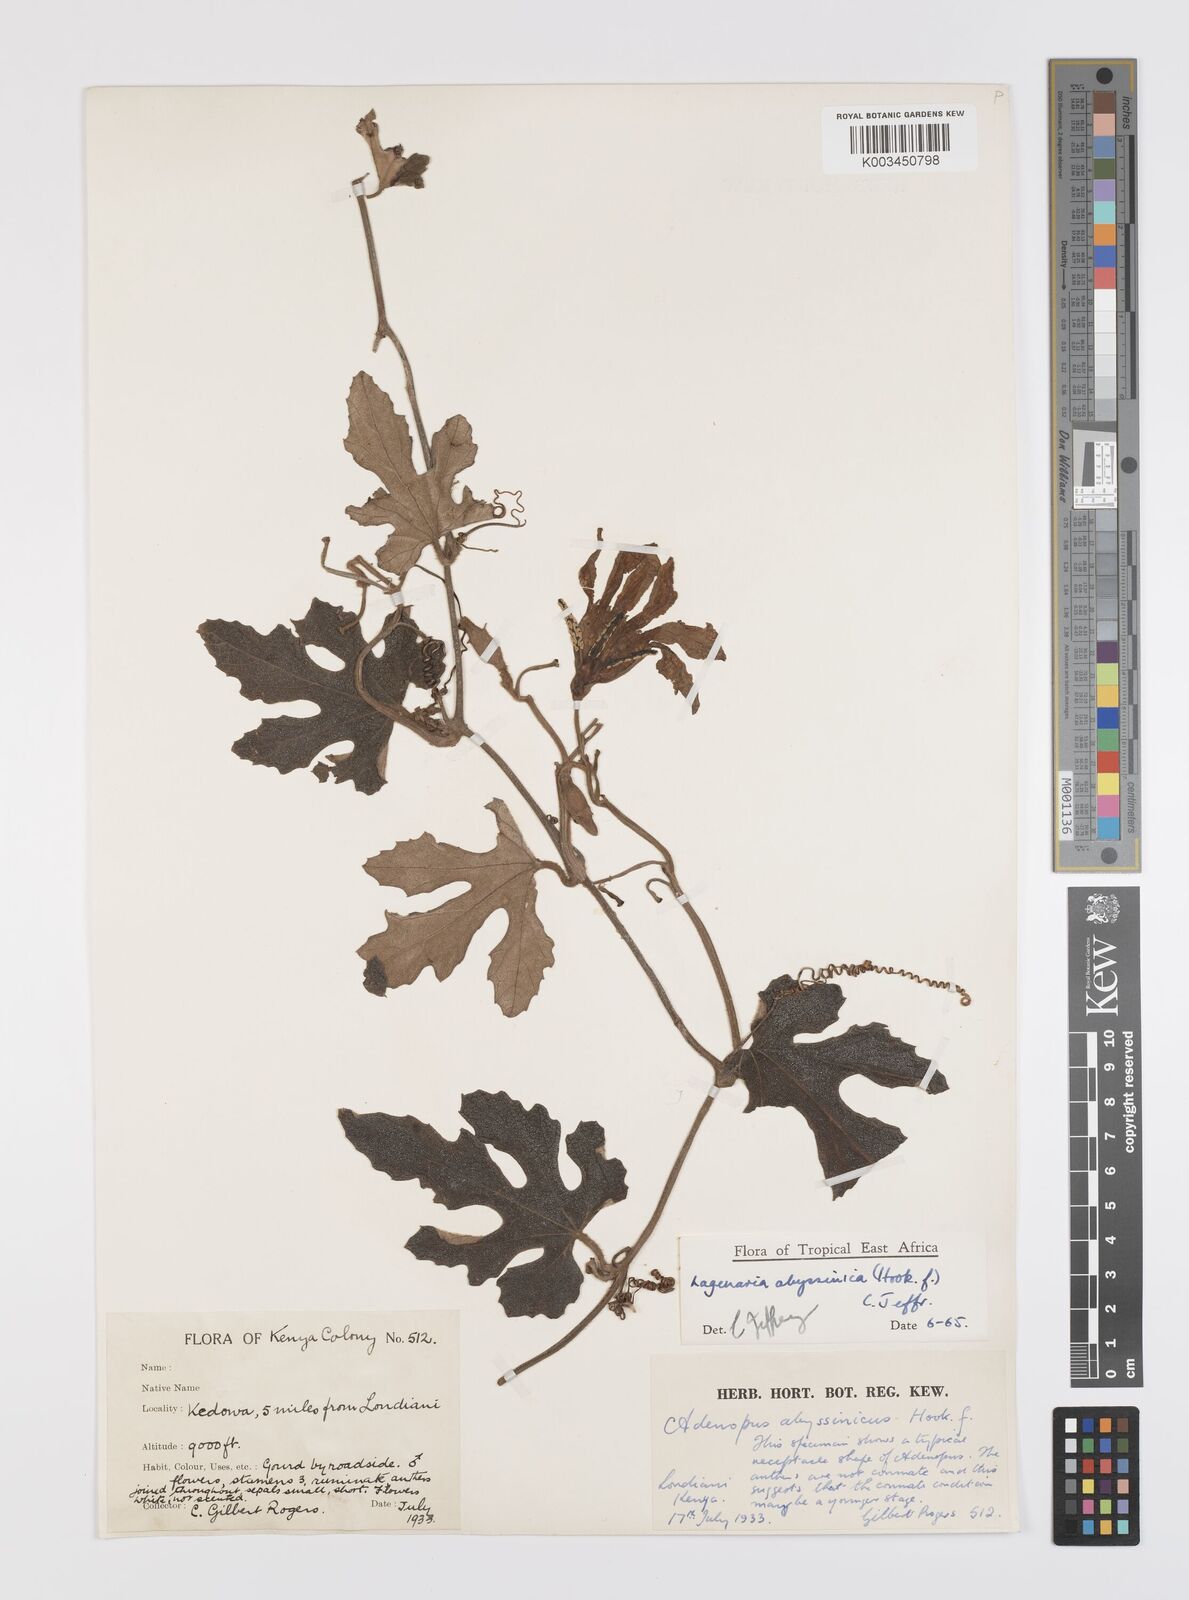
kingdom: Plantae
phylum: Tracheophyta
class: Magnoliopsida
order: Cucurbitales
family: Cucurbitaceae
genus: Lagenaria
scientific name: Lagenaria abyssinica
